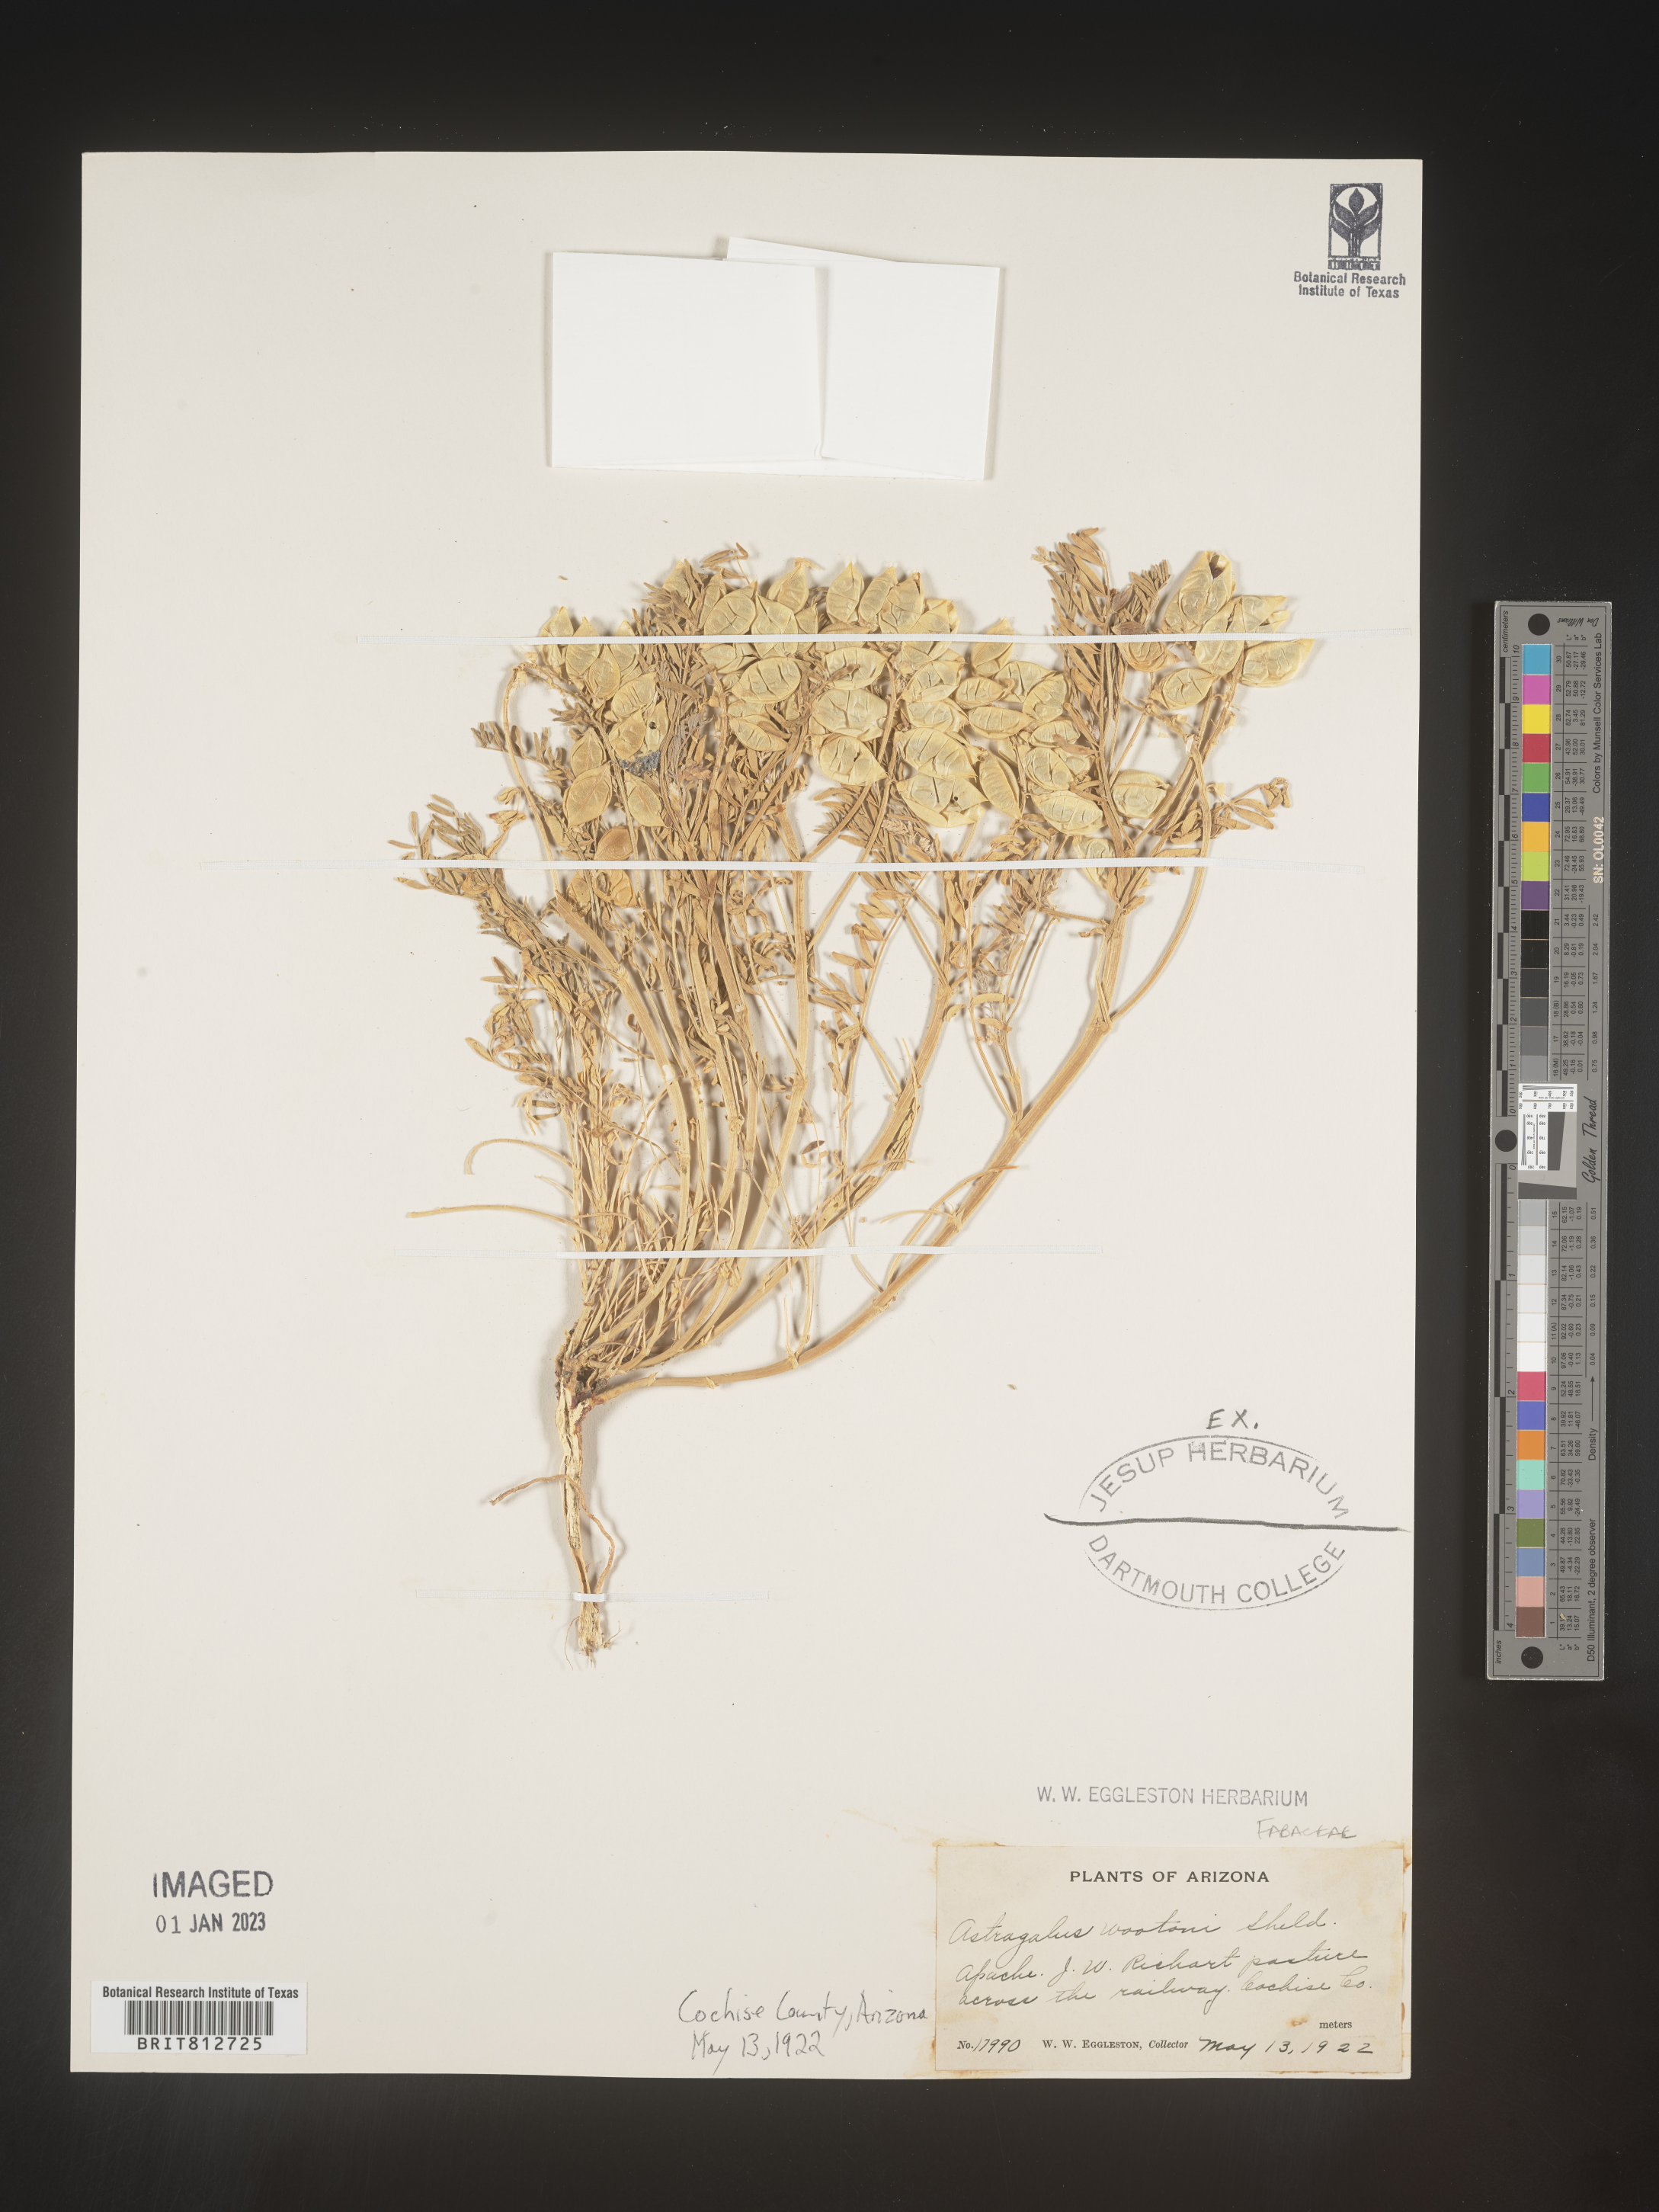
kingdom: Plantae
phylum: Tracheophyta
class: Magnoliopsida
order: Fabales
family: Fabaceae
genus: Astragalus
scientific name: Astragalus wootonii
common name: Wooton's milk-vetch
